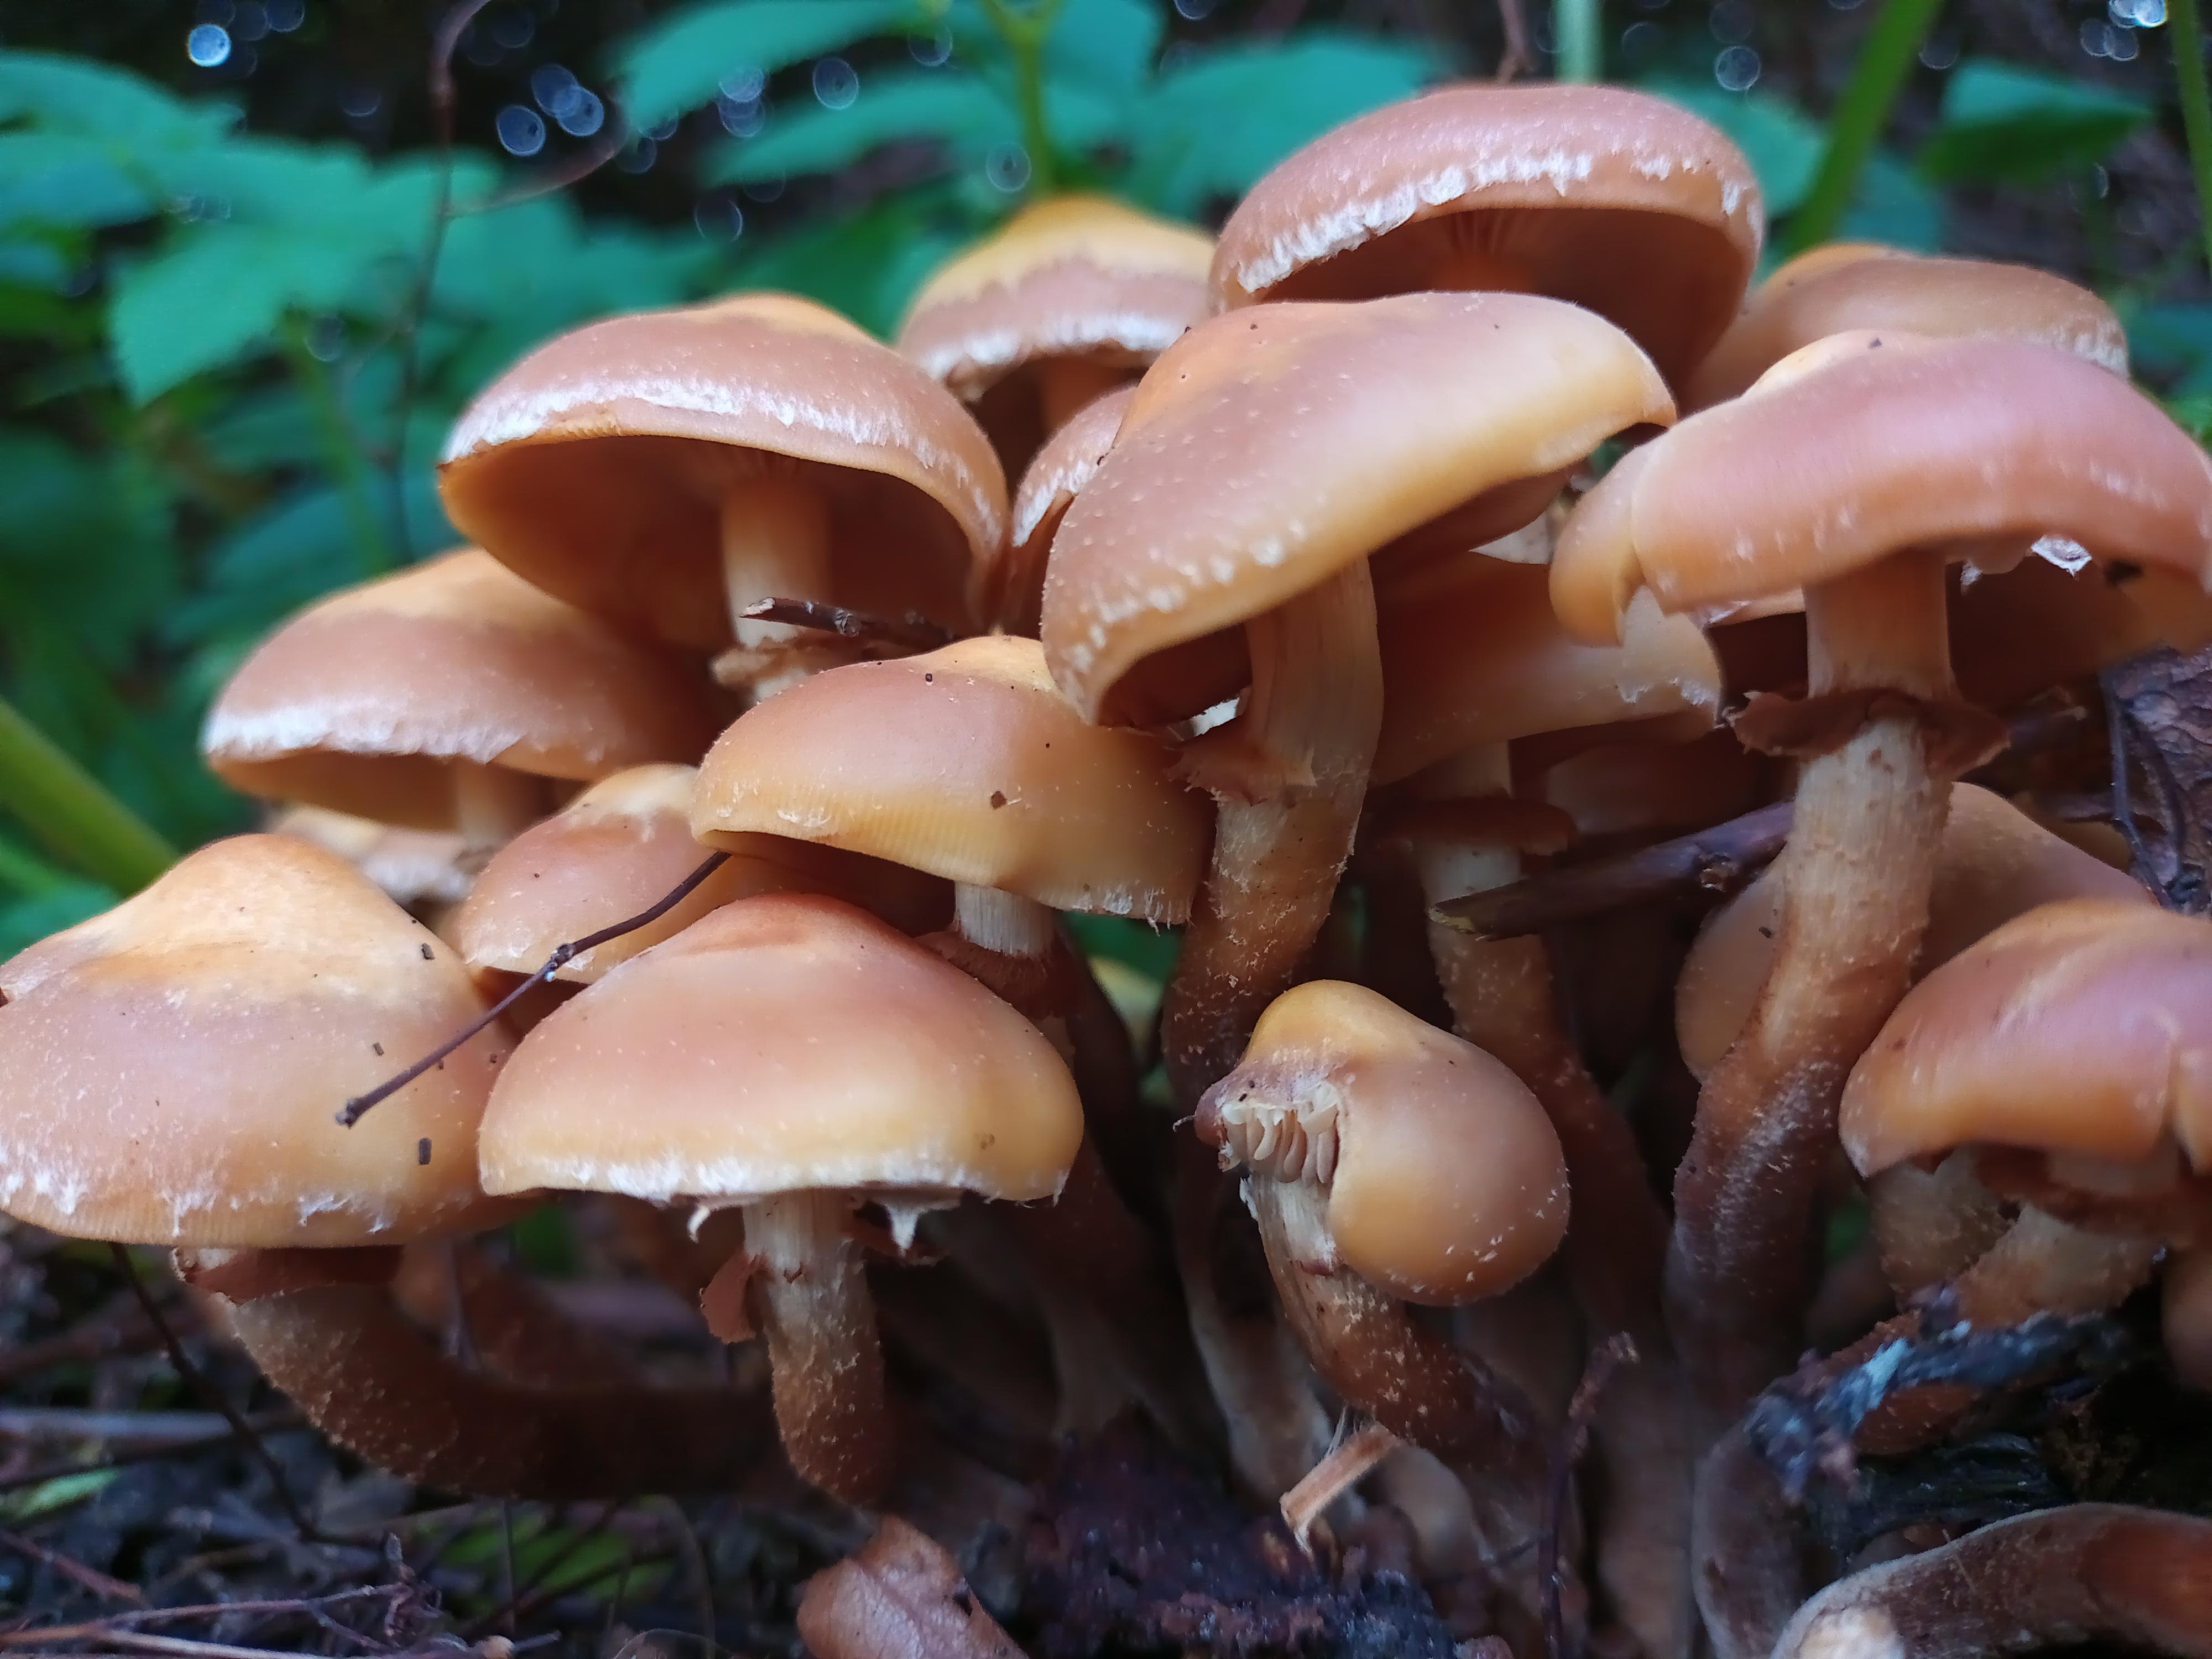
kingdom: Fungi
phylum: Basidiomycota
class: Agaricomycetes
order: Agaricales
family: Strophariaceae
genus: Kuehneromyces
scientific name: Kuehneromyces mutabilis
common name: foranderlig skælhat
